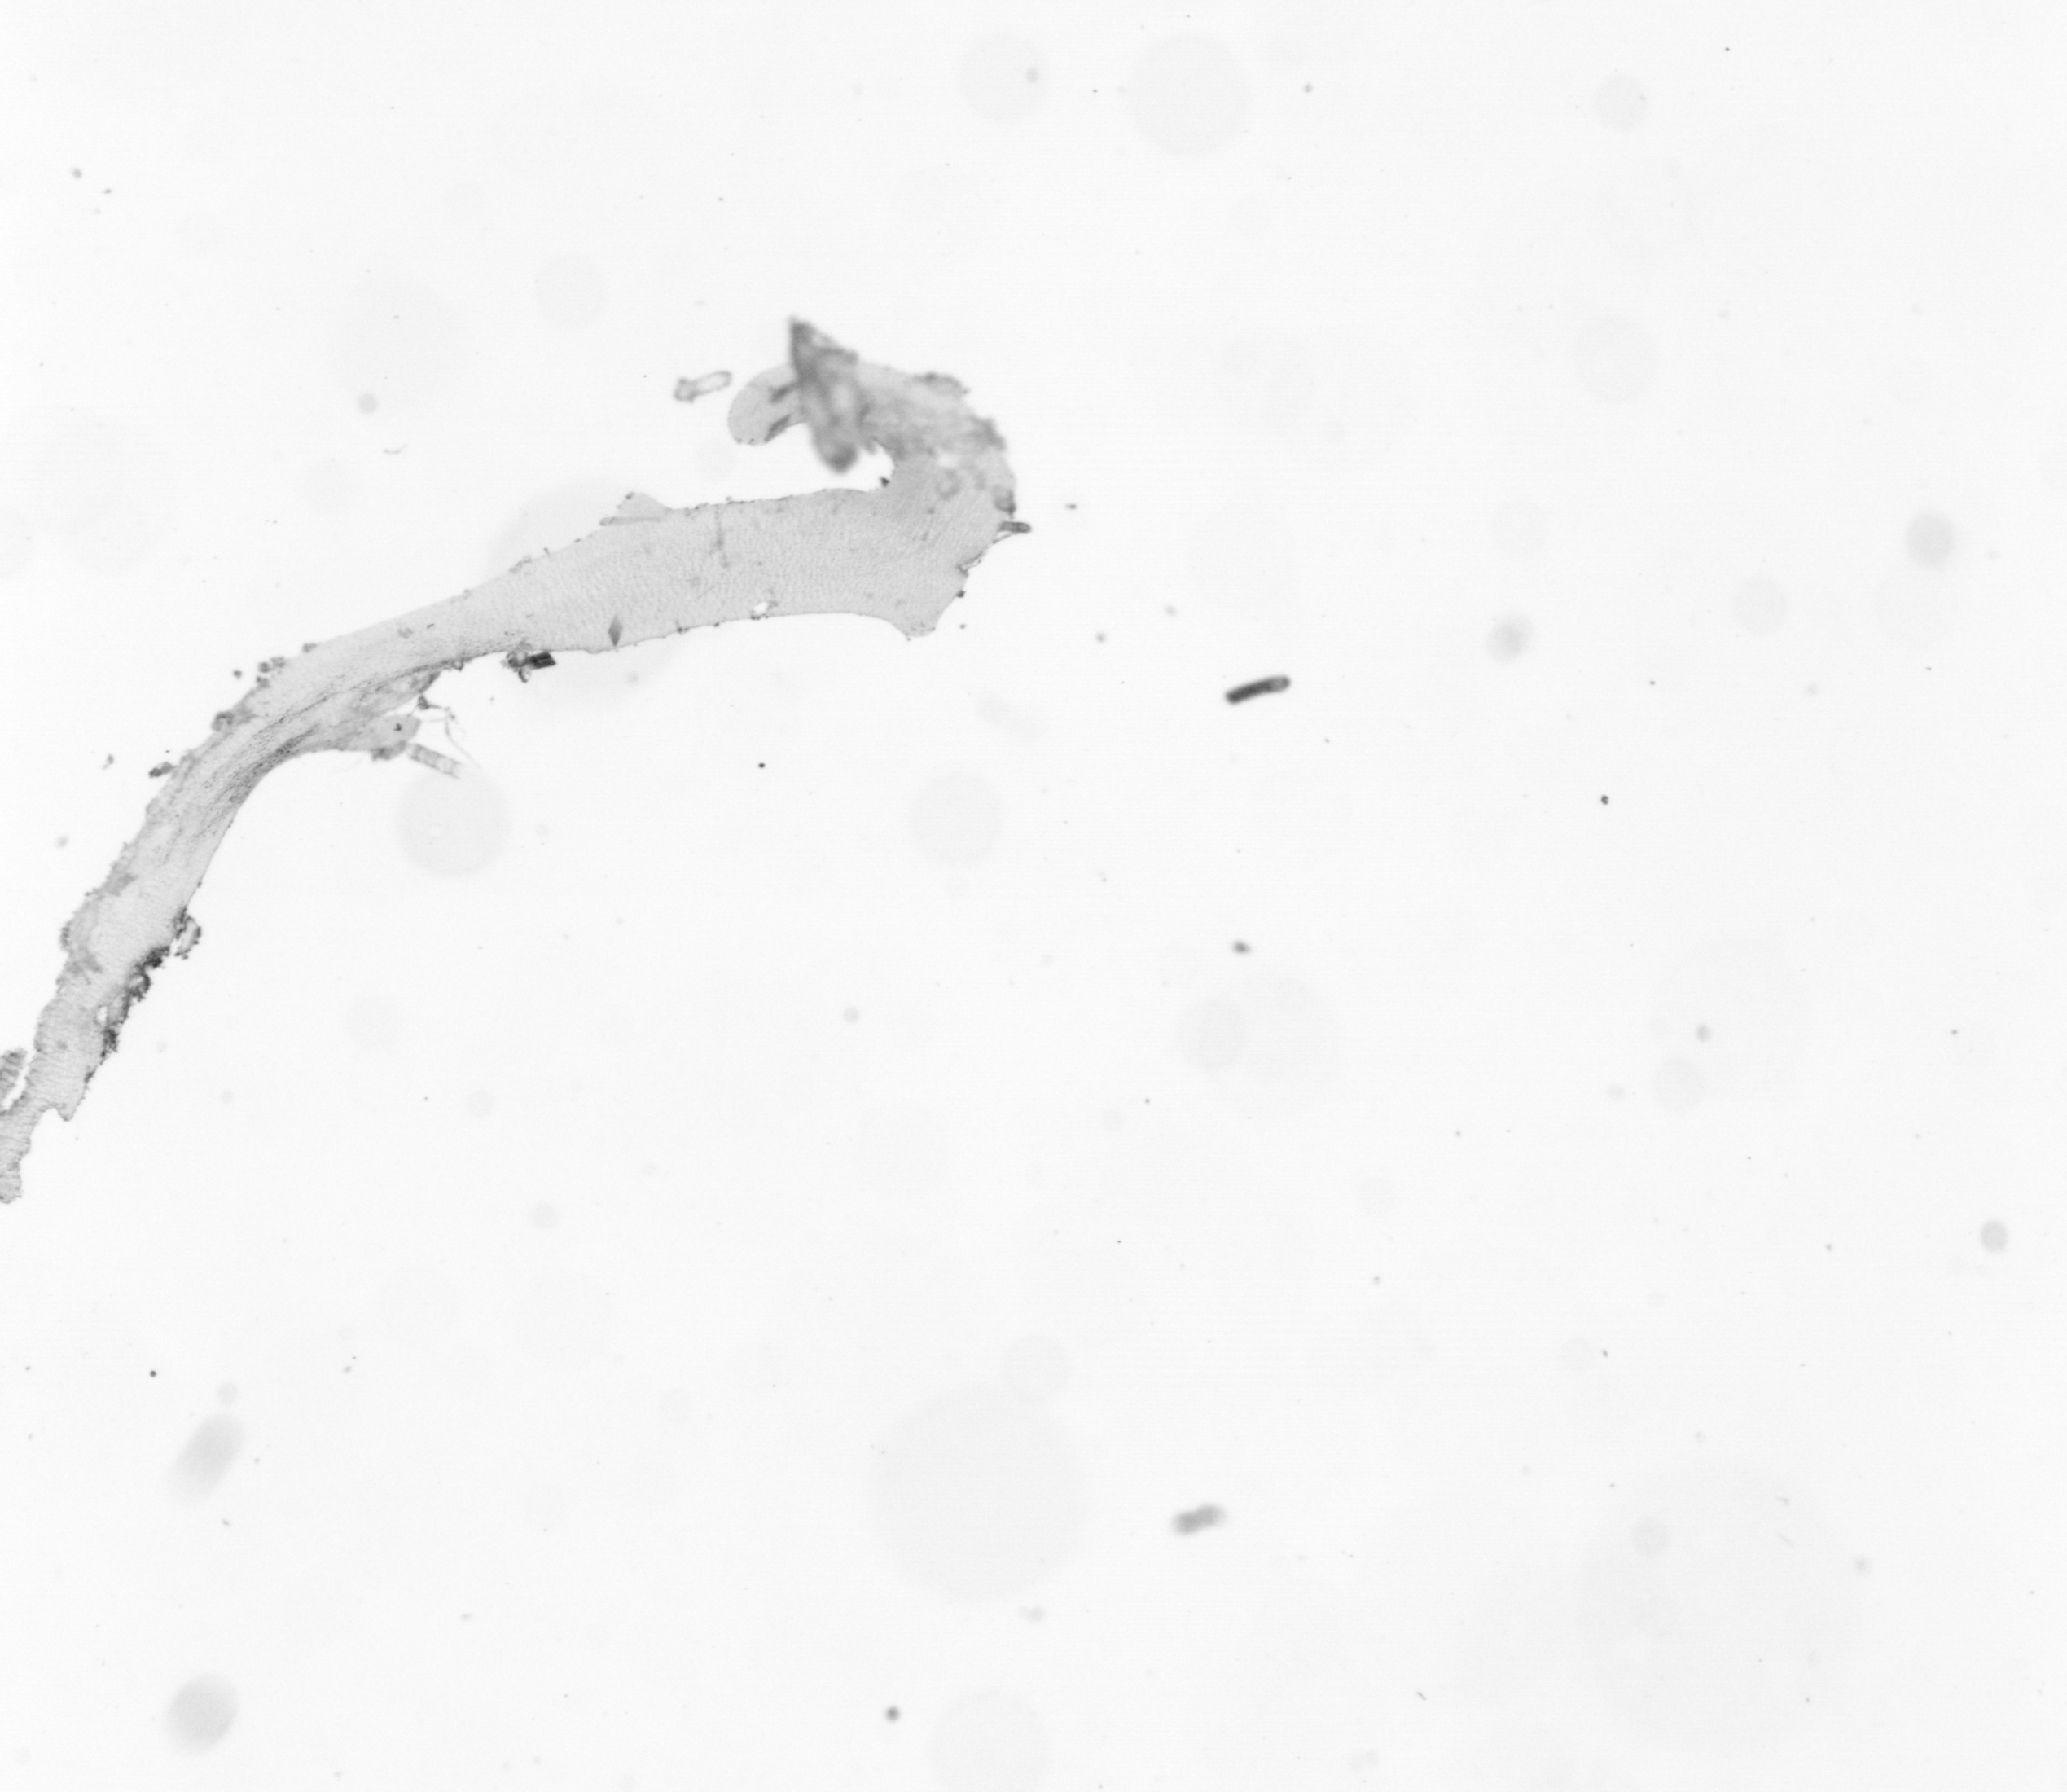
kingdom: Animalia
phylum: Chordata
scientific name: Chordata
